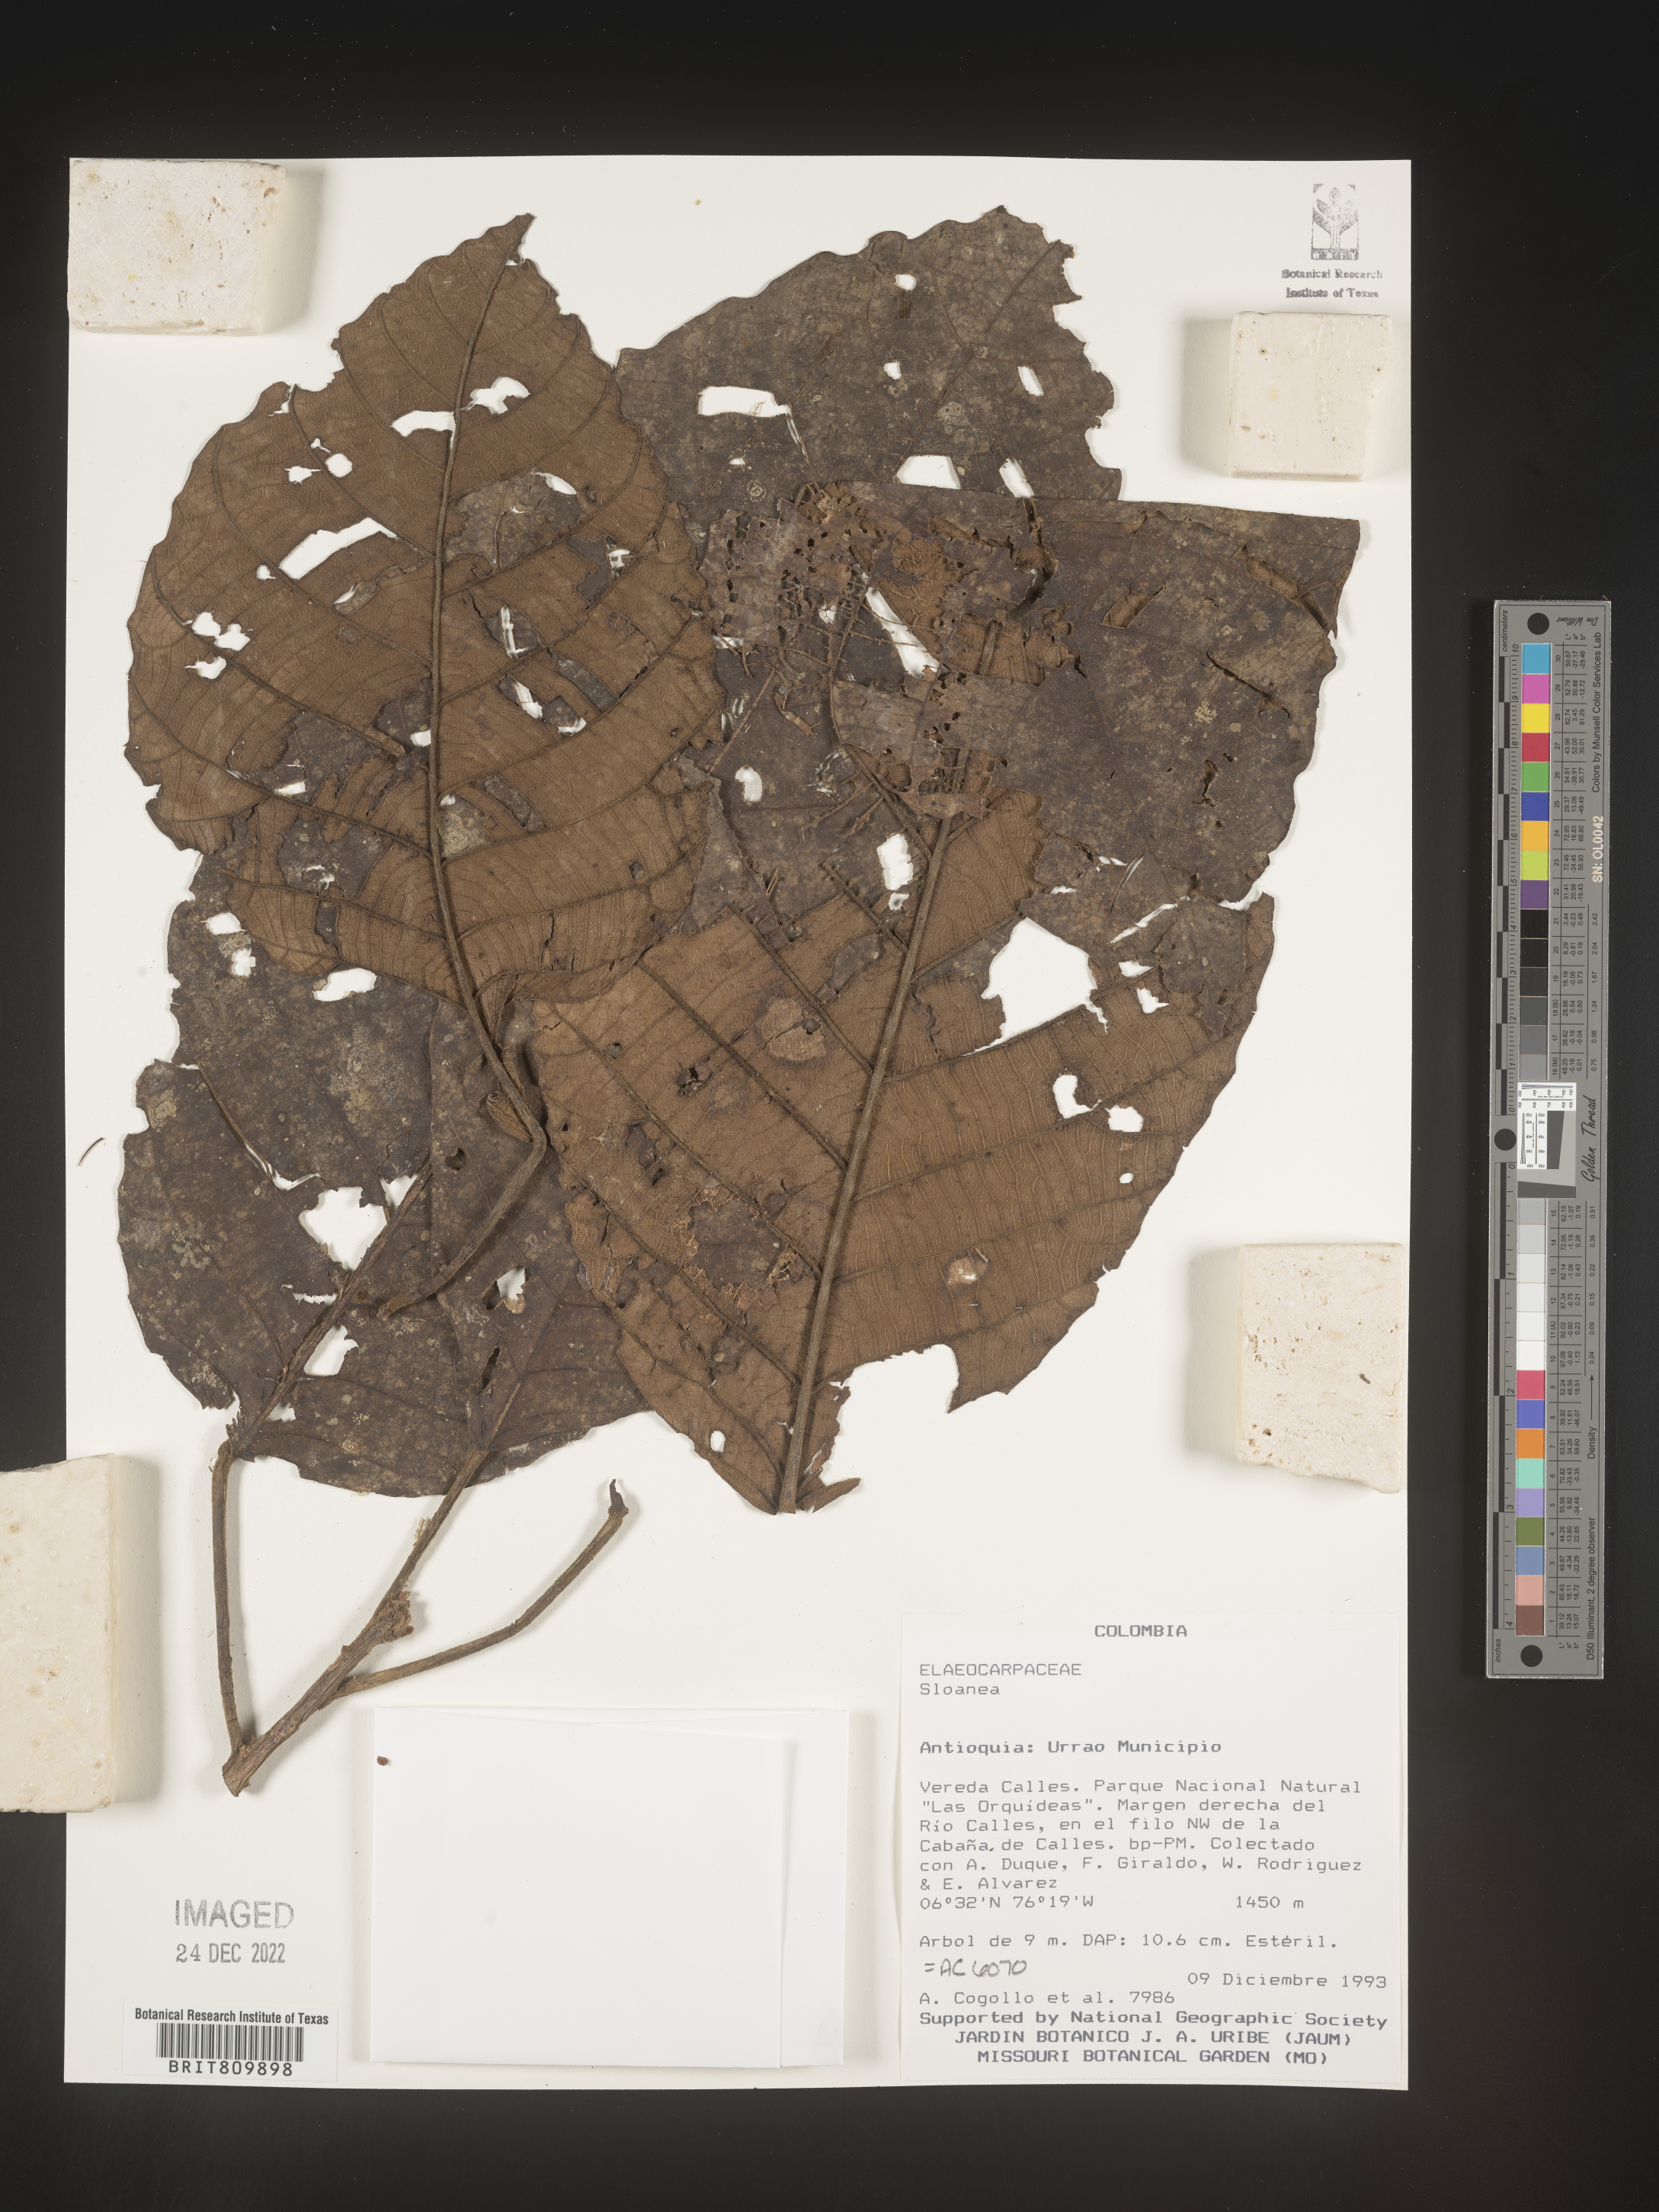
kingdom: Plantae
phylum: Tracheophyta
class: Magnoliopsida
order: Oxalidales
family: Elaeocarpaceae
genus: Sloanea
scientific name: Sloanea
